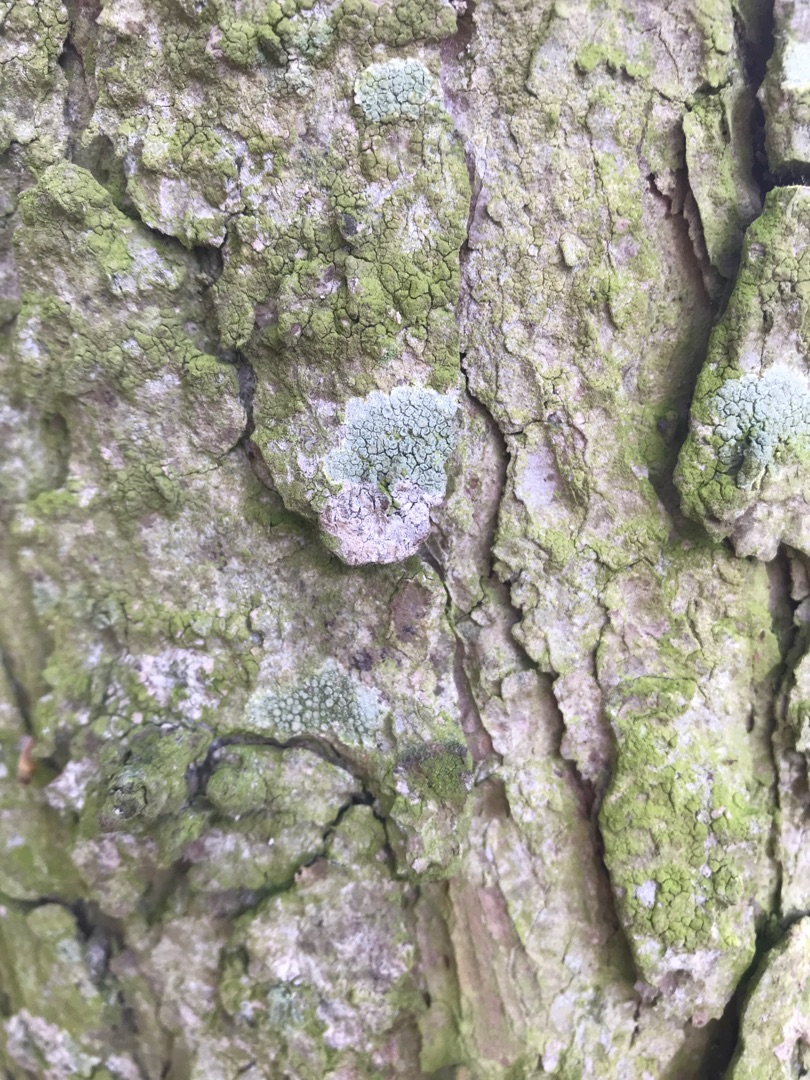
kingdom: Fungi
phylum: Ascomycota
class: Lecanoromycetes
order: Lecanorales
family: Lecanoraceae
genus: Lecanora
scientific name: Lecanora chlarotera
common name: Brun kantskivelav
